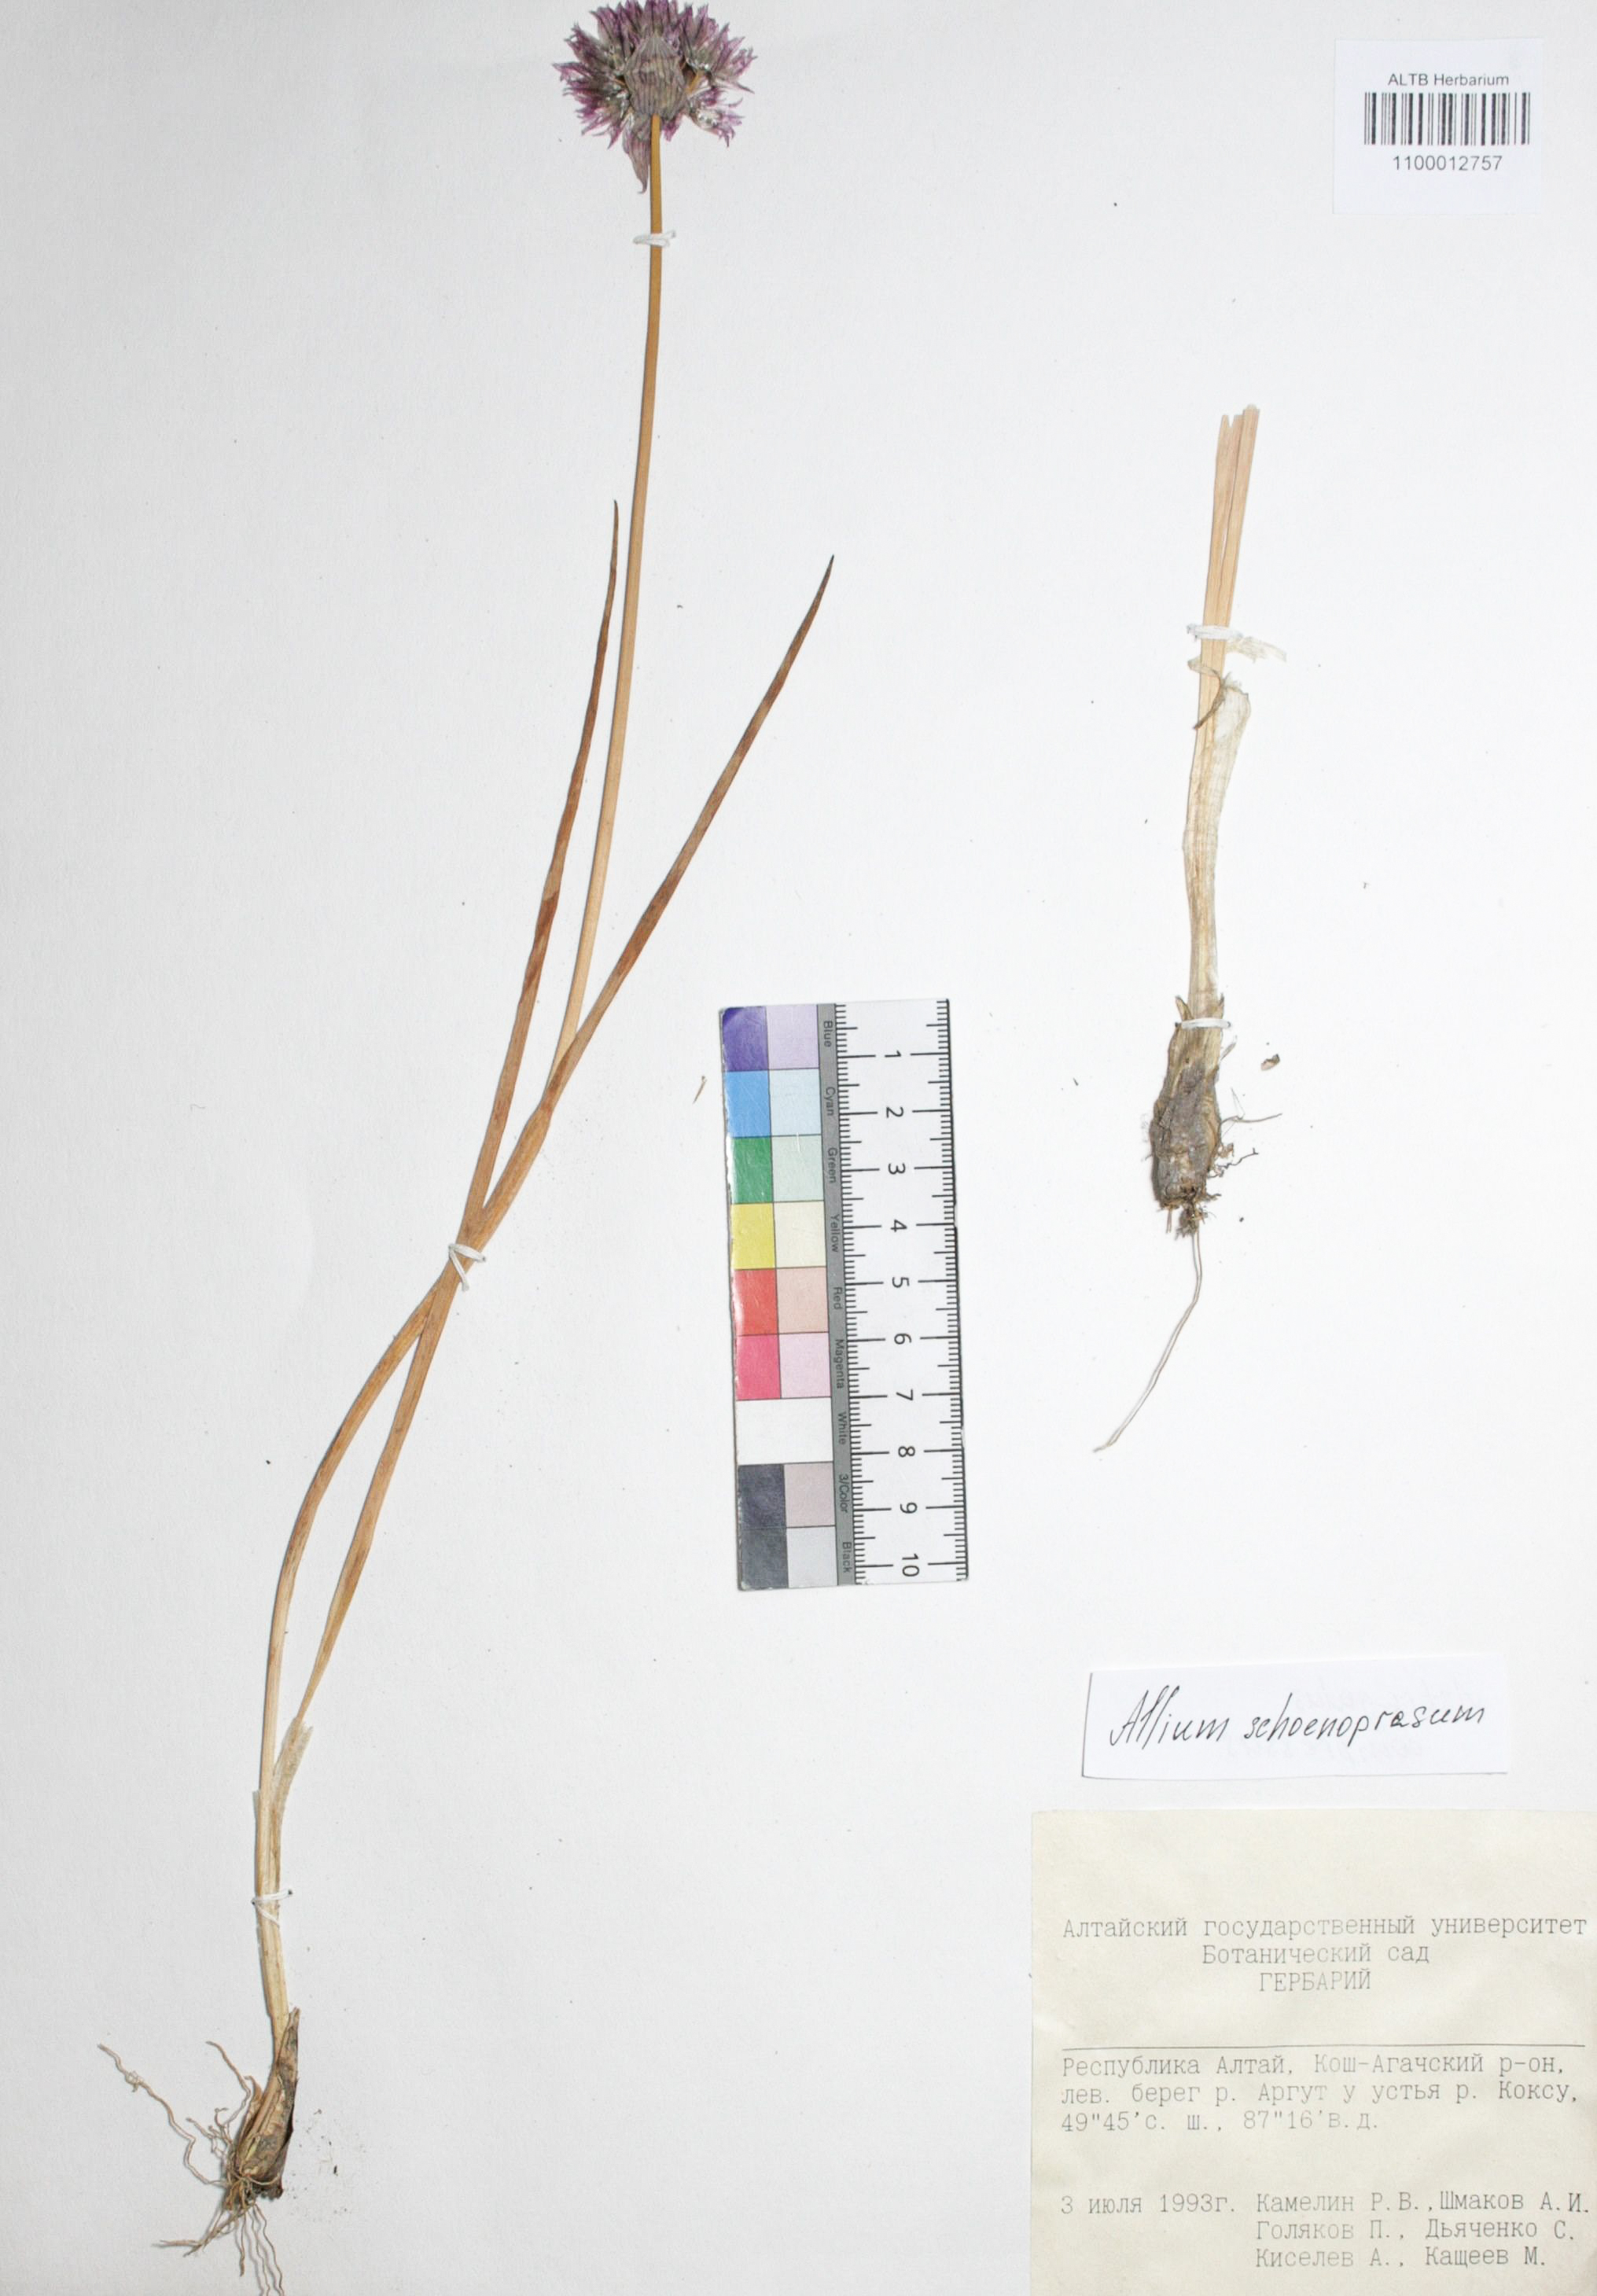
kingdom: Plantae
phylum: Tracheophyta
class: Liliopsida
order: Asparagales
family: Amaryllidaceae
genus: Allium
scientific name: Allium schoenoprasum
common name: Chives
